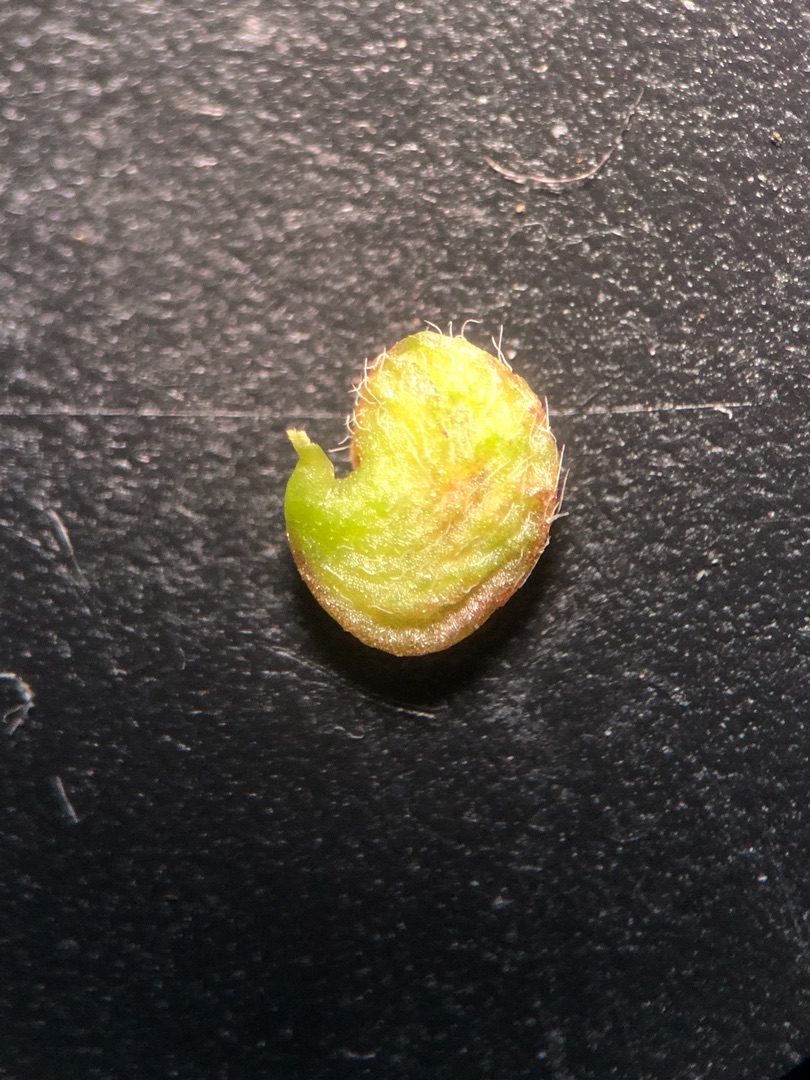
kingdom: Plantae
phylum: Tracheophyta
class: Magnoliopsida
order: Fabales
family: Fabaceae
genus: Medicago
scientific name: Medicago lupulina
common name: Humle-sneglebælg
